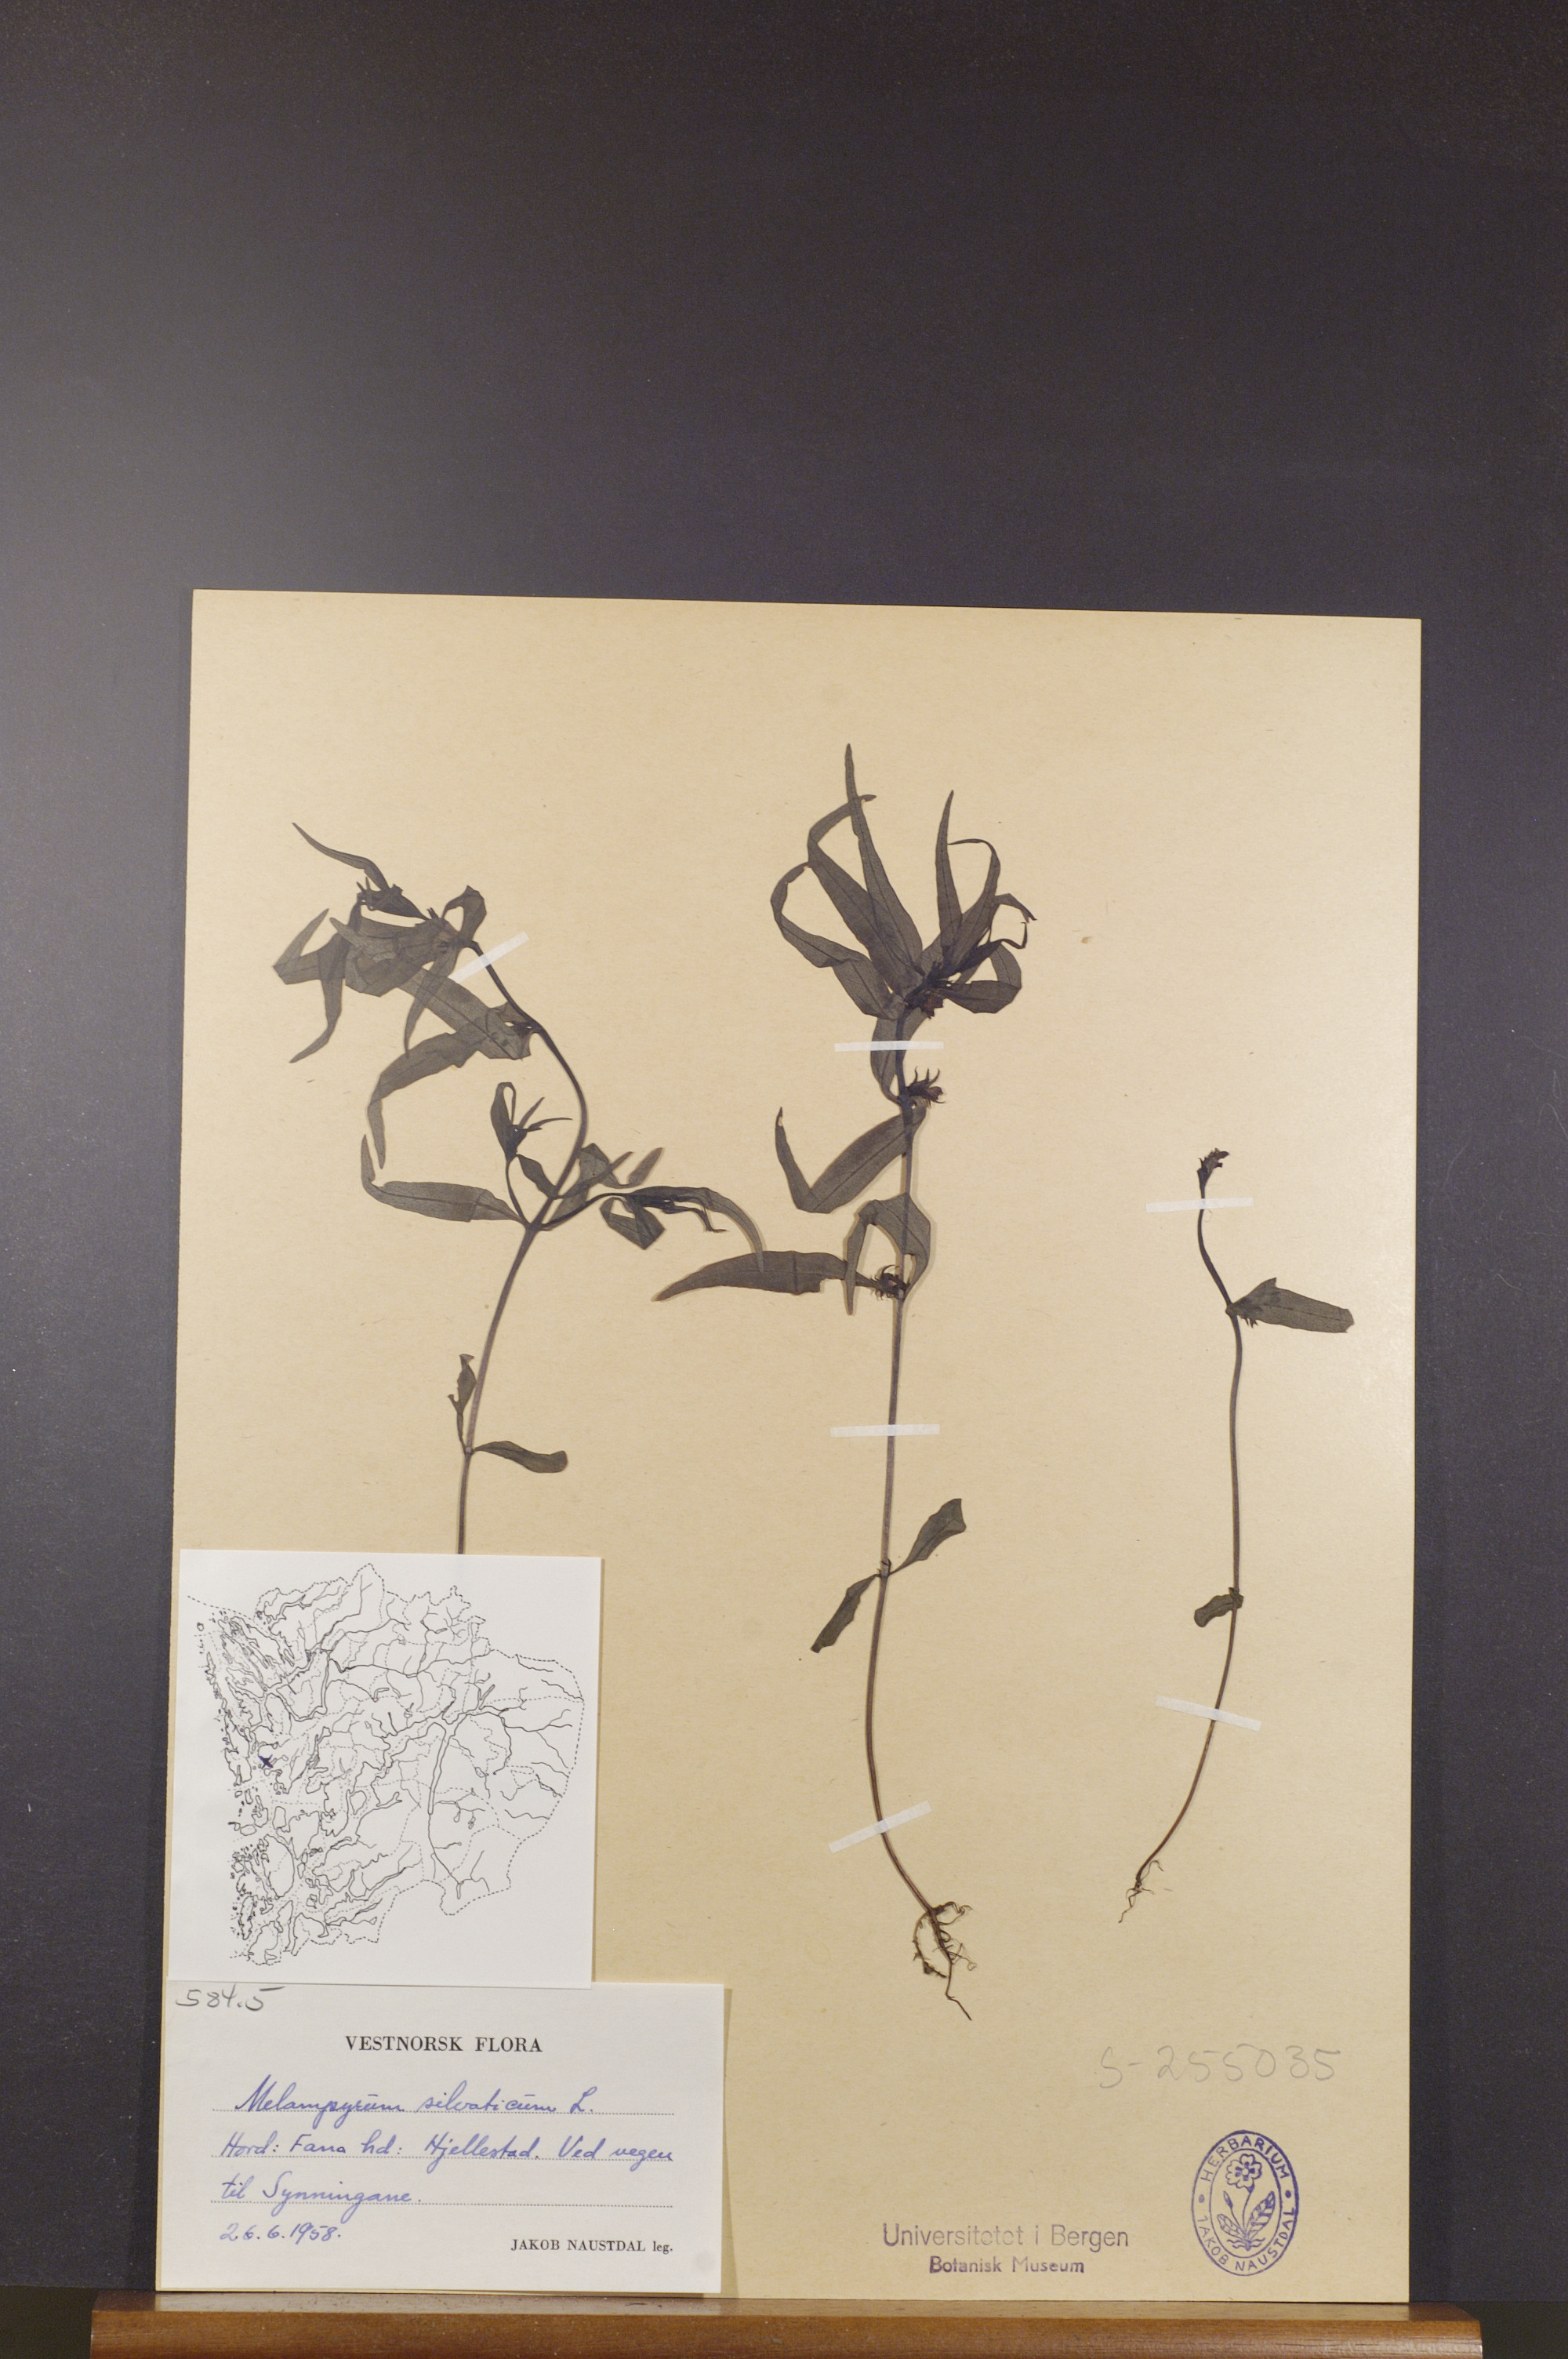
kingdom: Plantae
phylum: Tracheophyta
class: Magnoliopsida
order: Lamiales
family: Orobanchaceae
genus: Melampyrum
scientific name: Melampyrum sylvaticum
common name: Small cow-wheat
